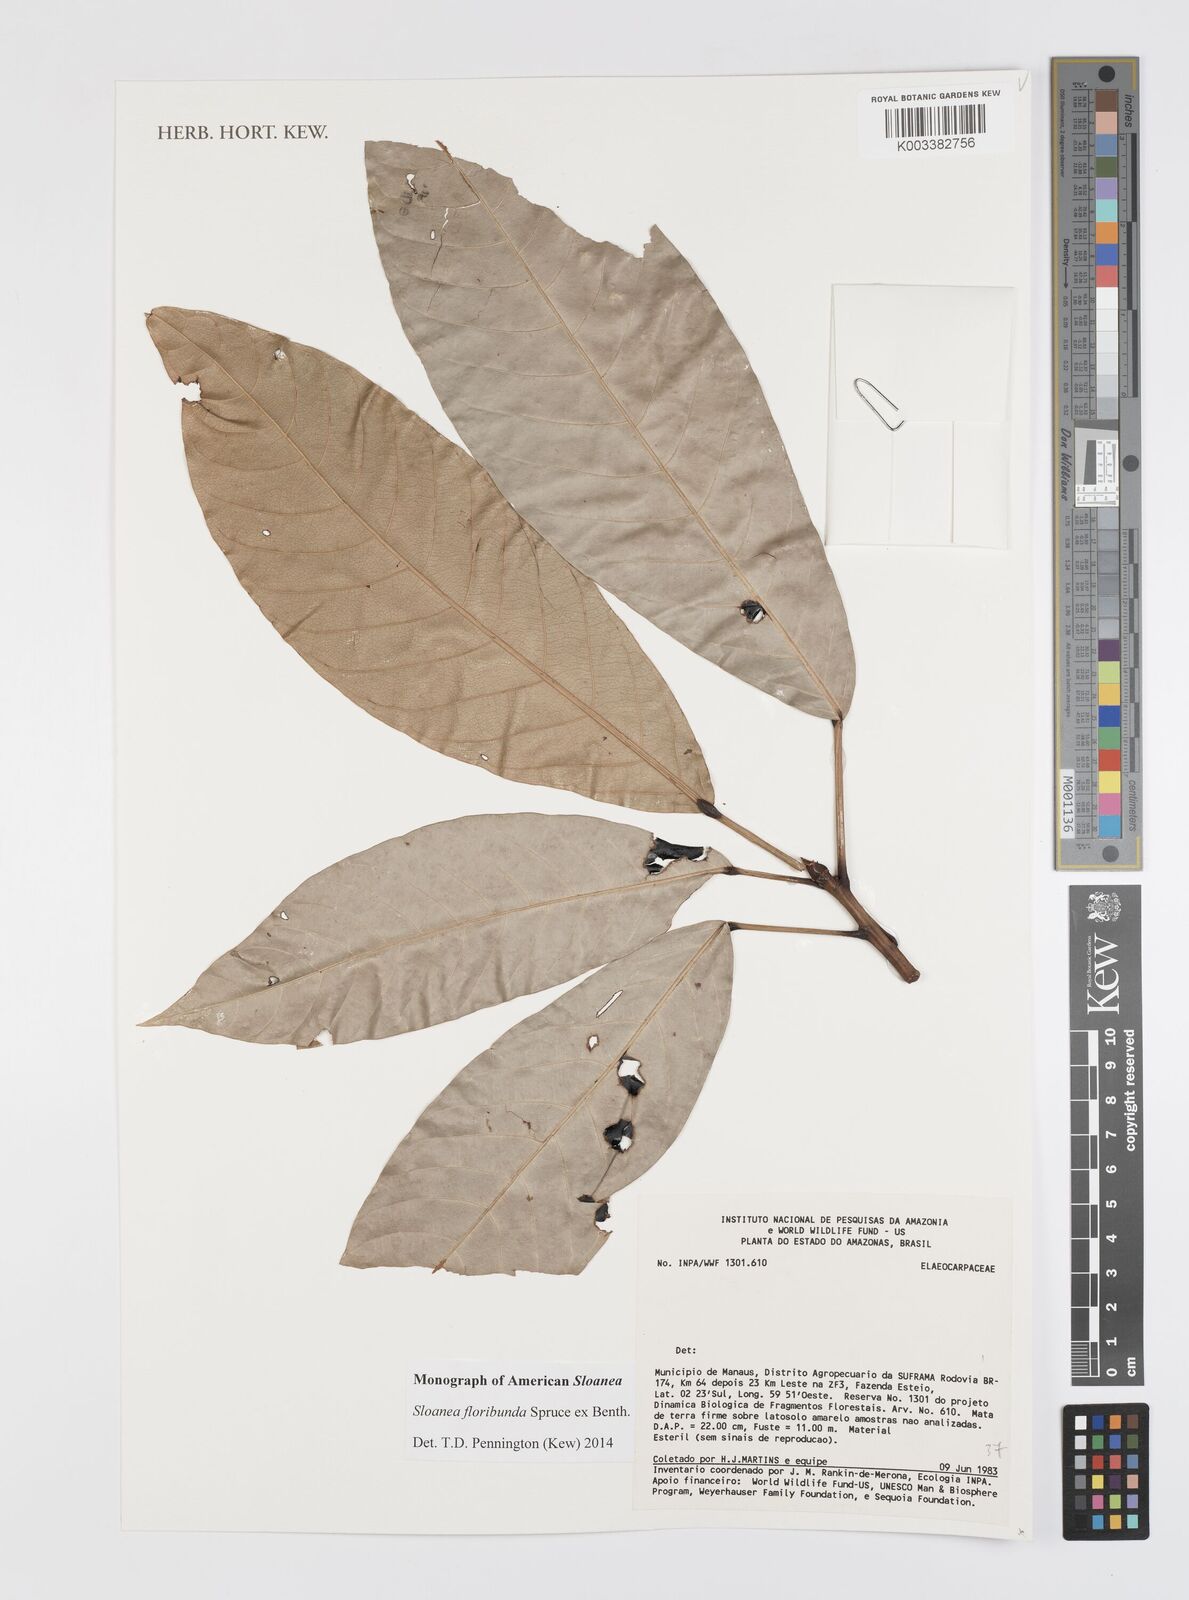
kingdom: Plantae
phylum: Tracheophyta
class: Magnoliopsida
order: Oxalidales
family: Elaeocarpaceae
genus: Sloanea
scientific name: Sloanea floribunda
